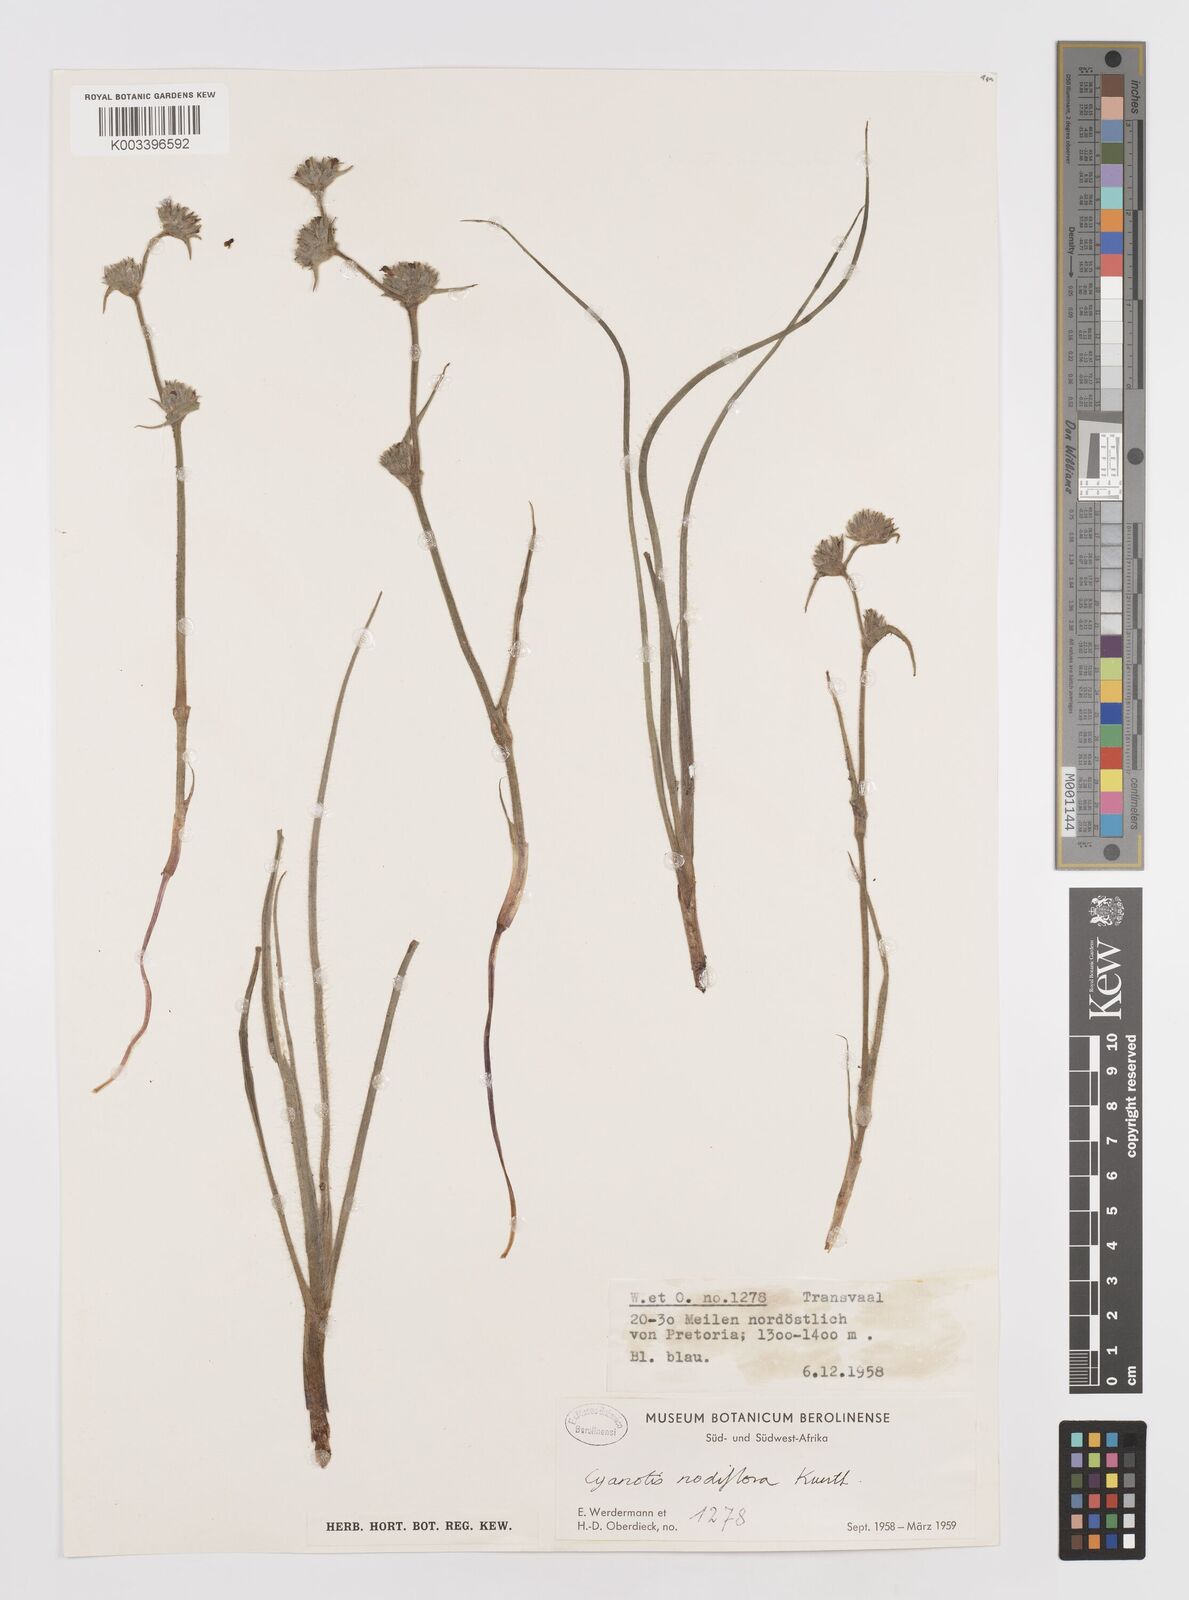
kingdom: Plantae
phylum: Tracheophyta
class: Liliopsida
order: Commelinales
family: Commelinaceae
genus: Cyanotis
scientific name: Cyanotis speciosa
